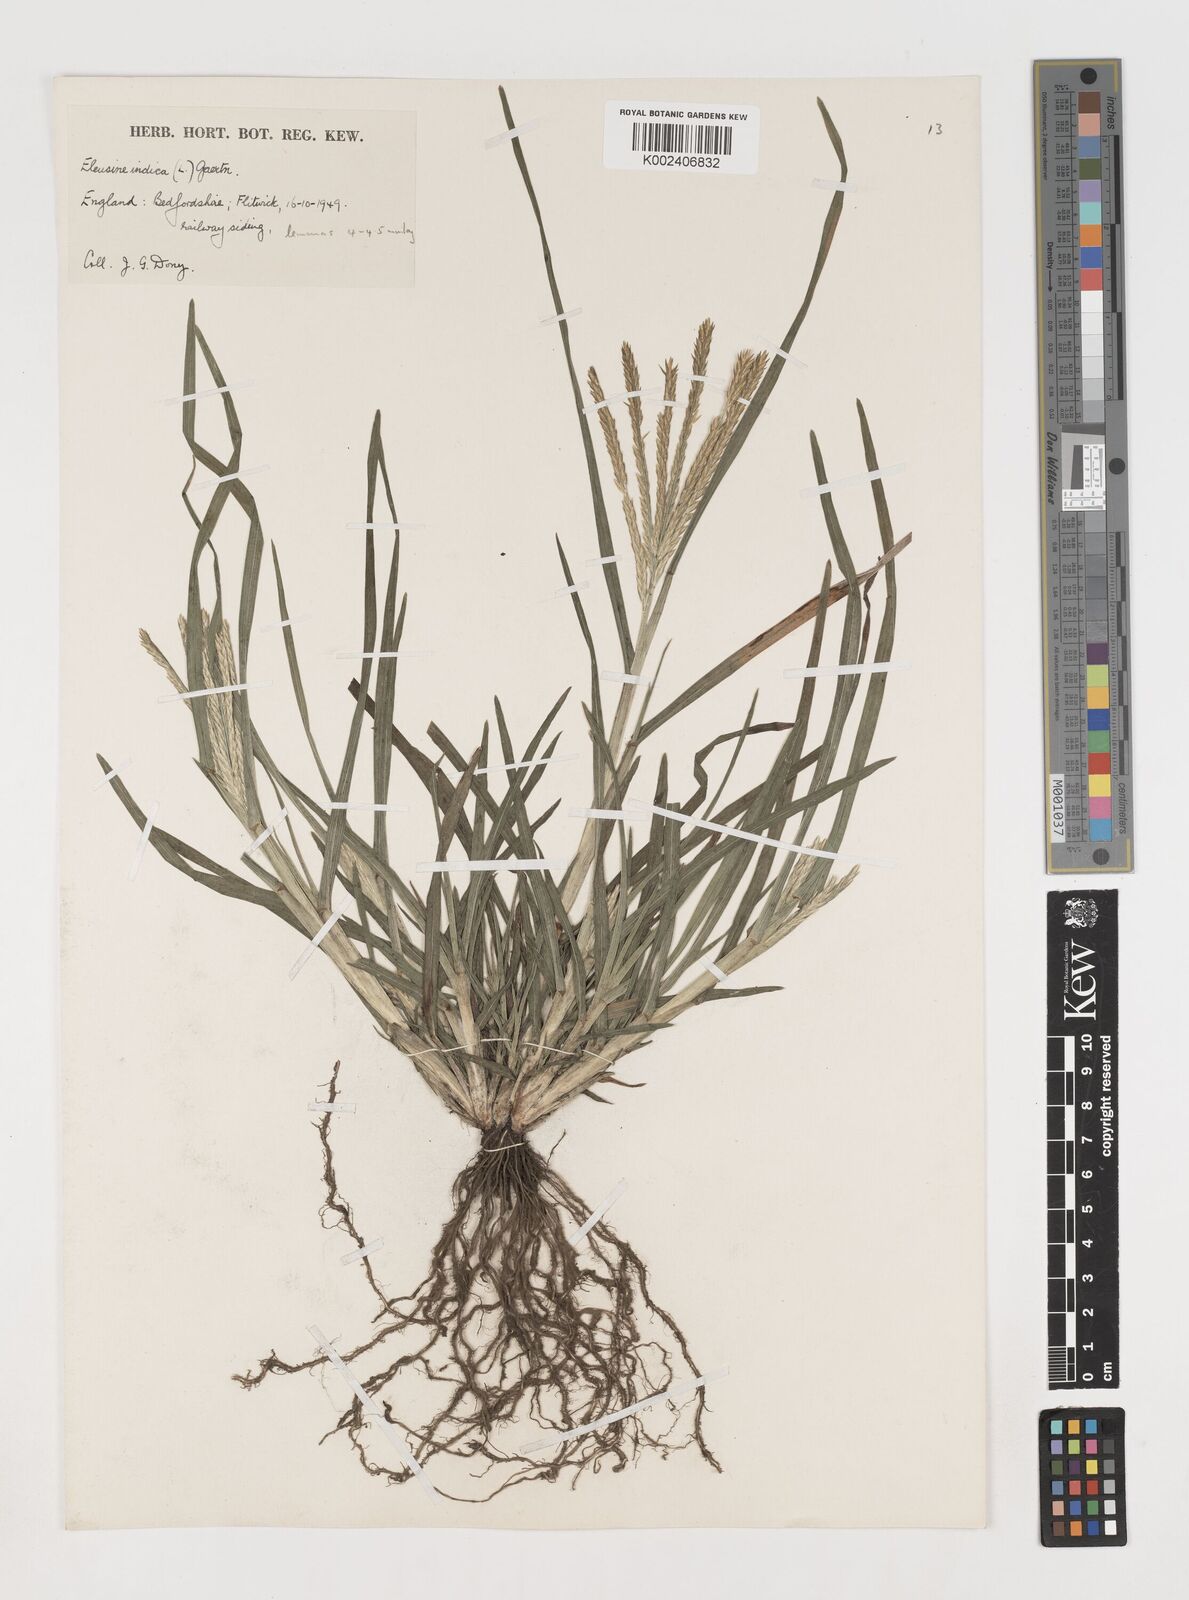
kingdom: Plantae
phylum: Tracheophyta
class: Liliopsida
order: Poales
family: Poaceae
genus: Eleusine
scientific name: Eleusine africana
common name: Wild african finger millet
